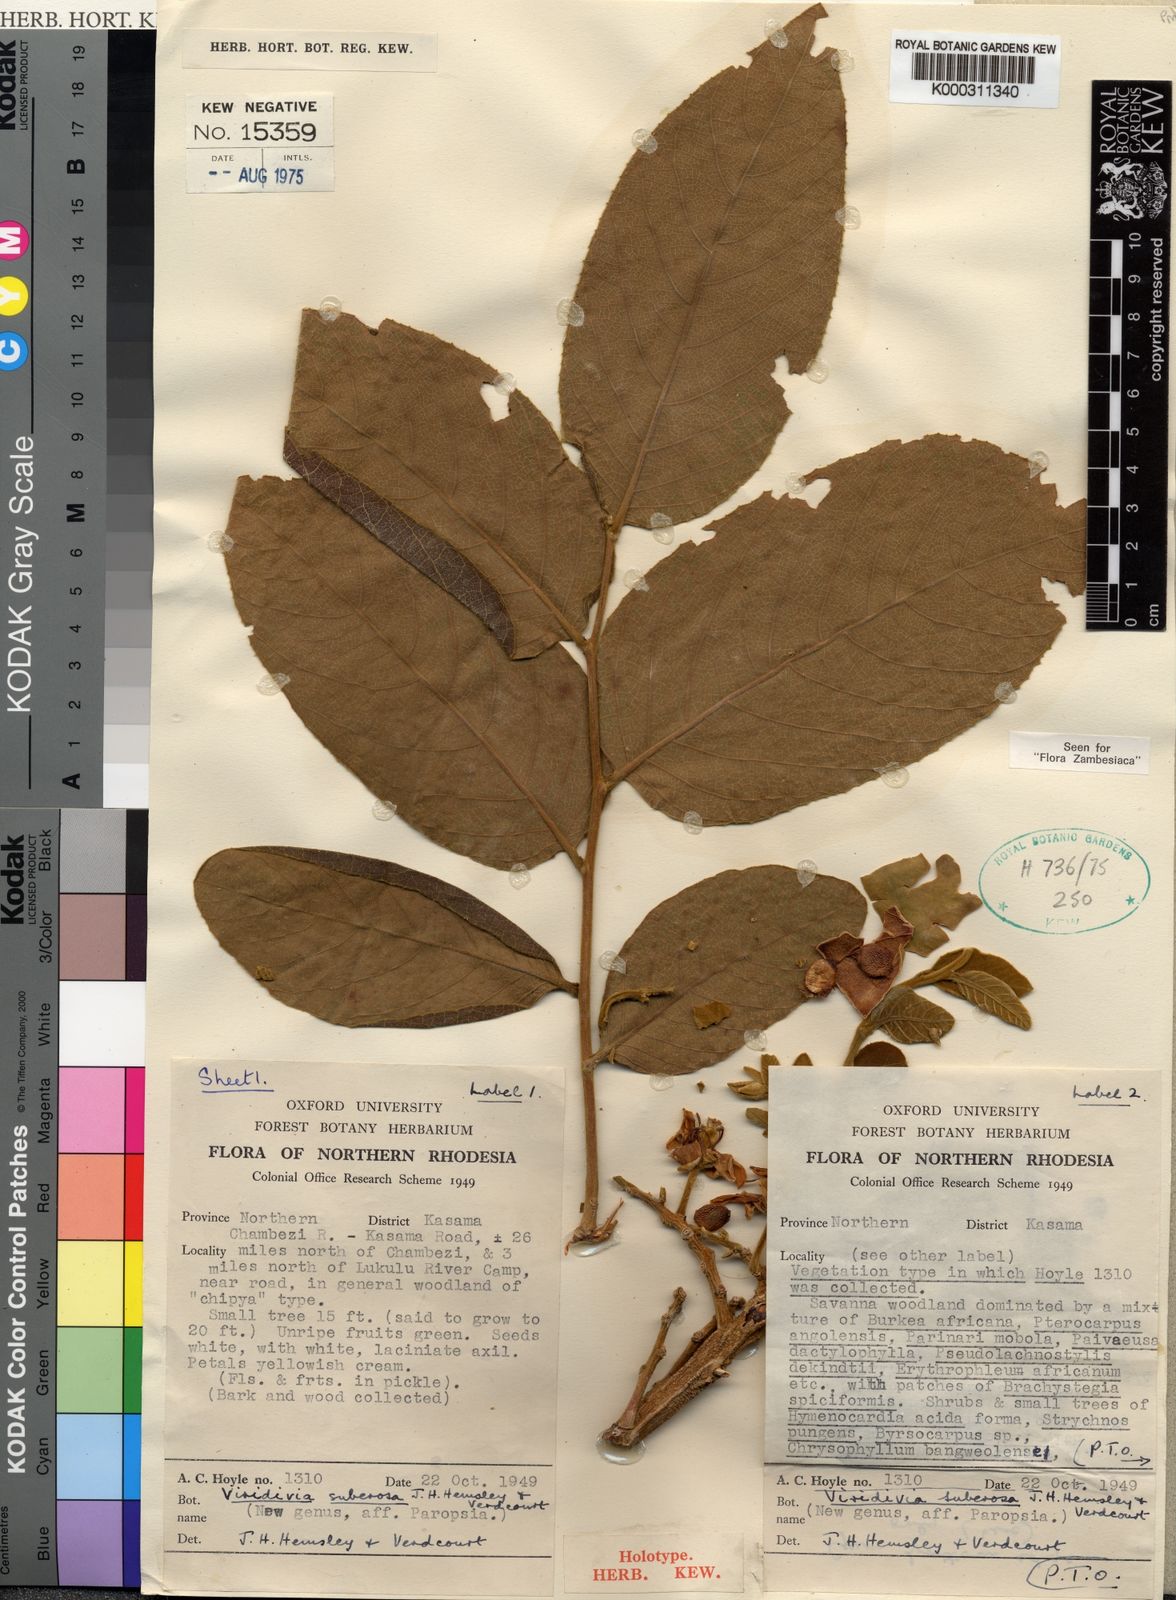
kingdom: Plantae
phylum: Tracheophyta
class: Magnoliopsida
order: Malpighiales
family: Passifloraceae
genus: Viridivia
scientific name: Viridivia suberosa
